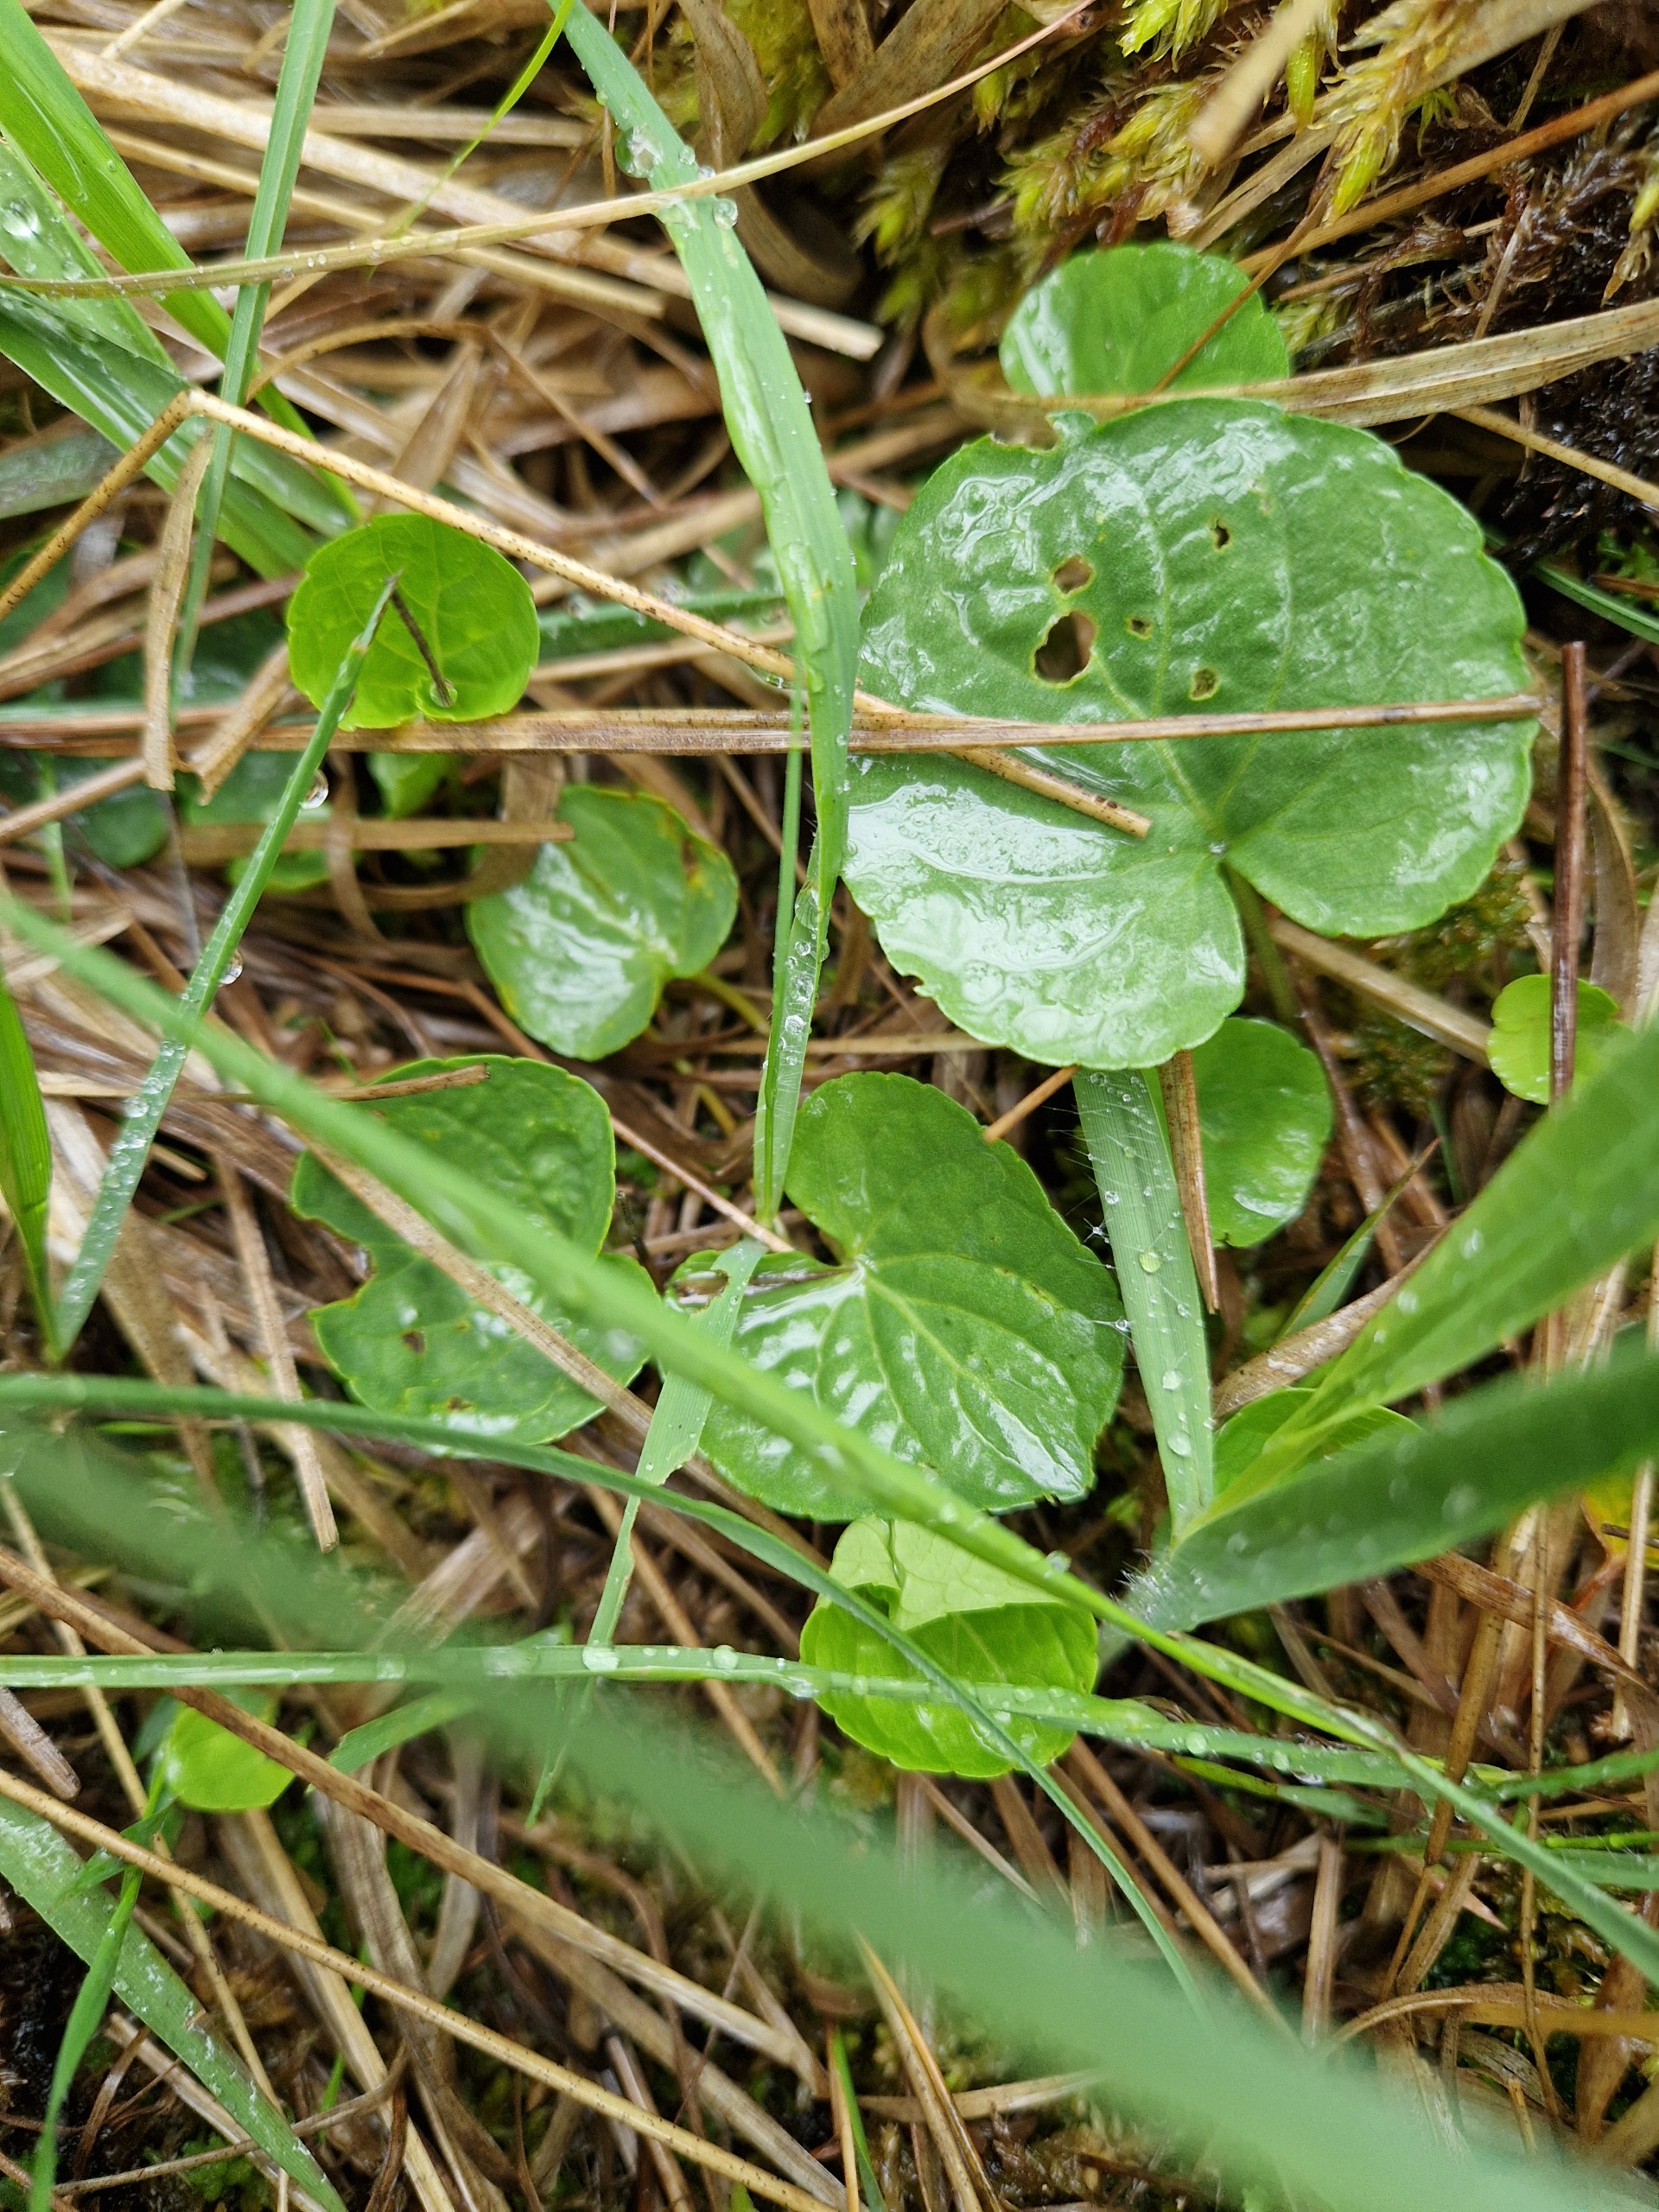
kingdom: Plantae
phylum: Tracheophyta
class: Magnoliopsida
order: Malpighiales
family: Violaceae
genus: Viola
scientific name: Viola palustris
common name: Eng-viol
